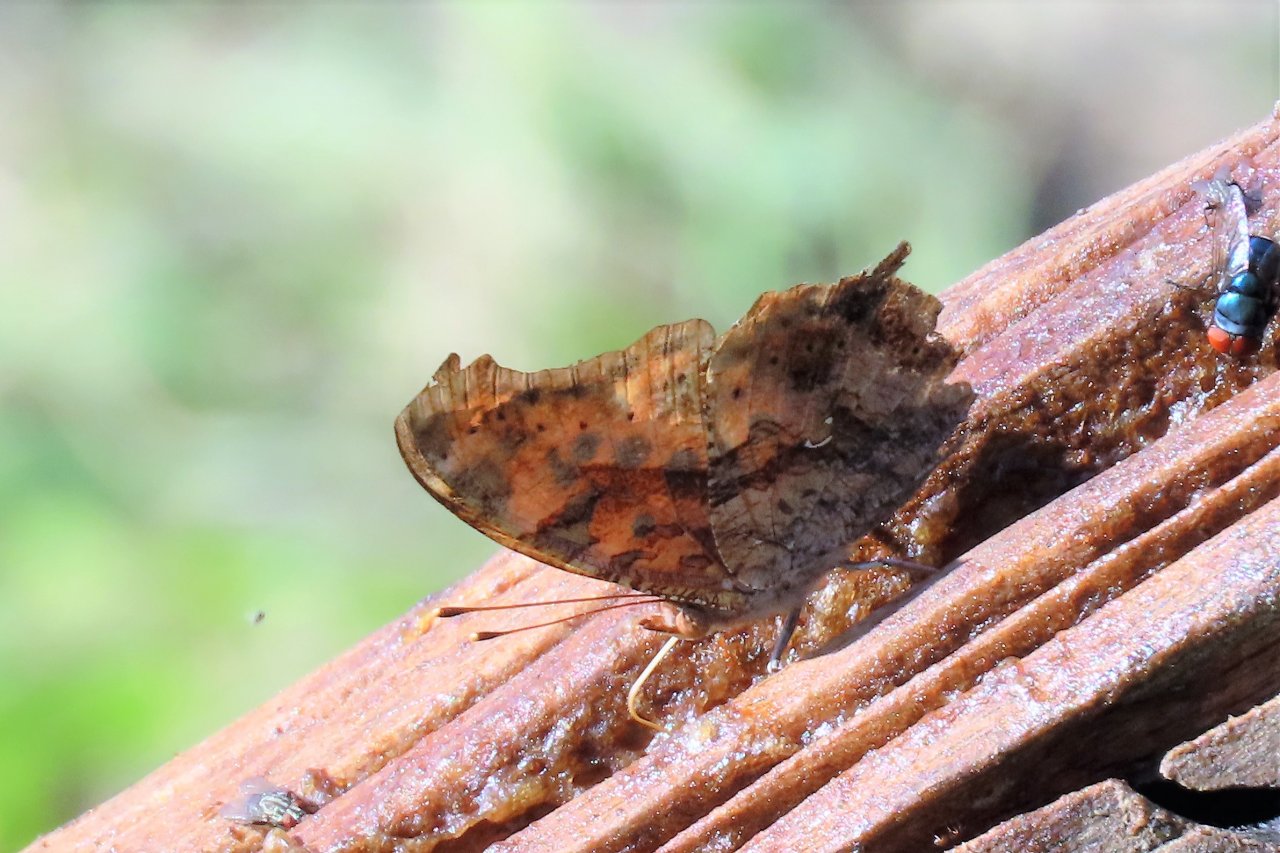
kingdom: Animalia
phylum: Arthropoda
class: Insecta
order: Lepidoptera
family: Nymphalidae
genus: Polygonia
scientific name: Polygonia interrogationis
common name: Question Mark
